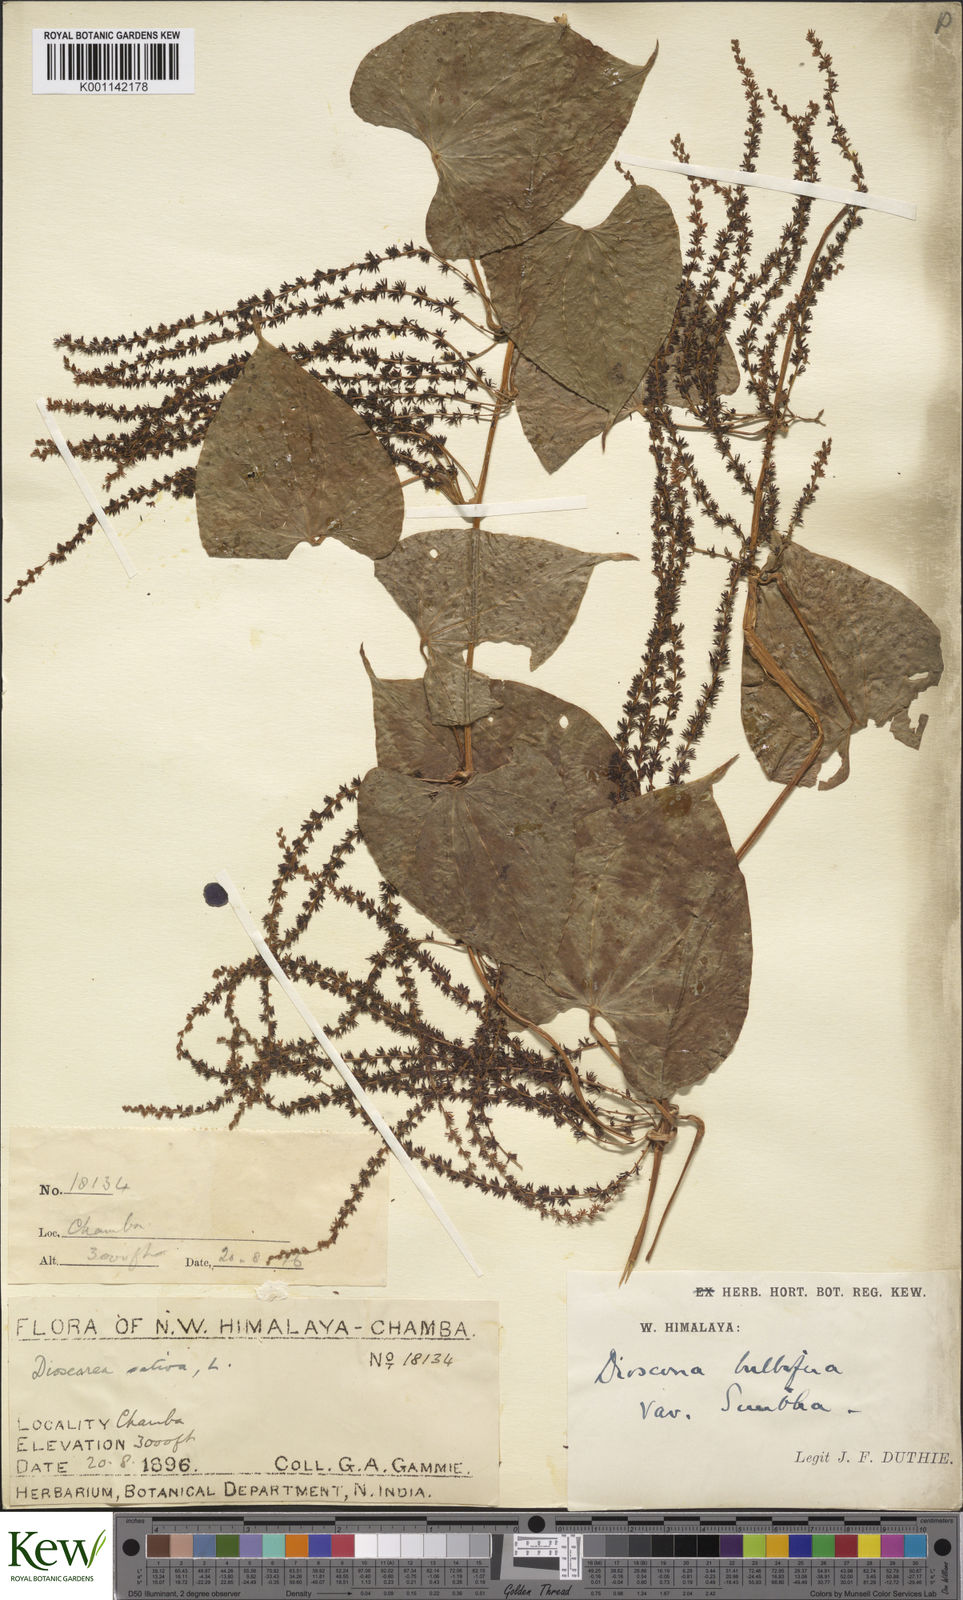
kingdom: Plantae
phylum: Tracheophyta
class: Liliopsida
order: Dioscoreales
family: Dioscoreaceae
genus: Dioscorea
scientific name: Dioscorea bulbifera
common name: Air yam
